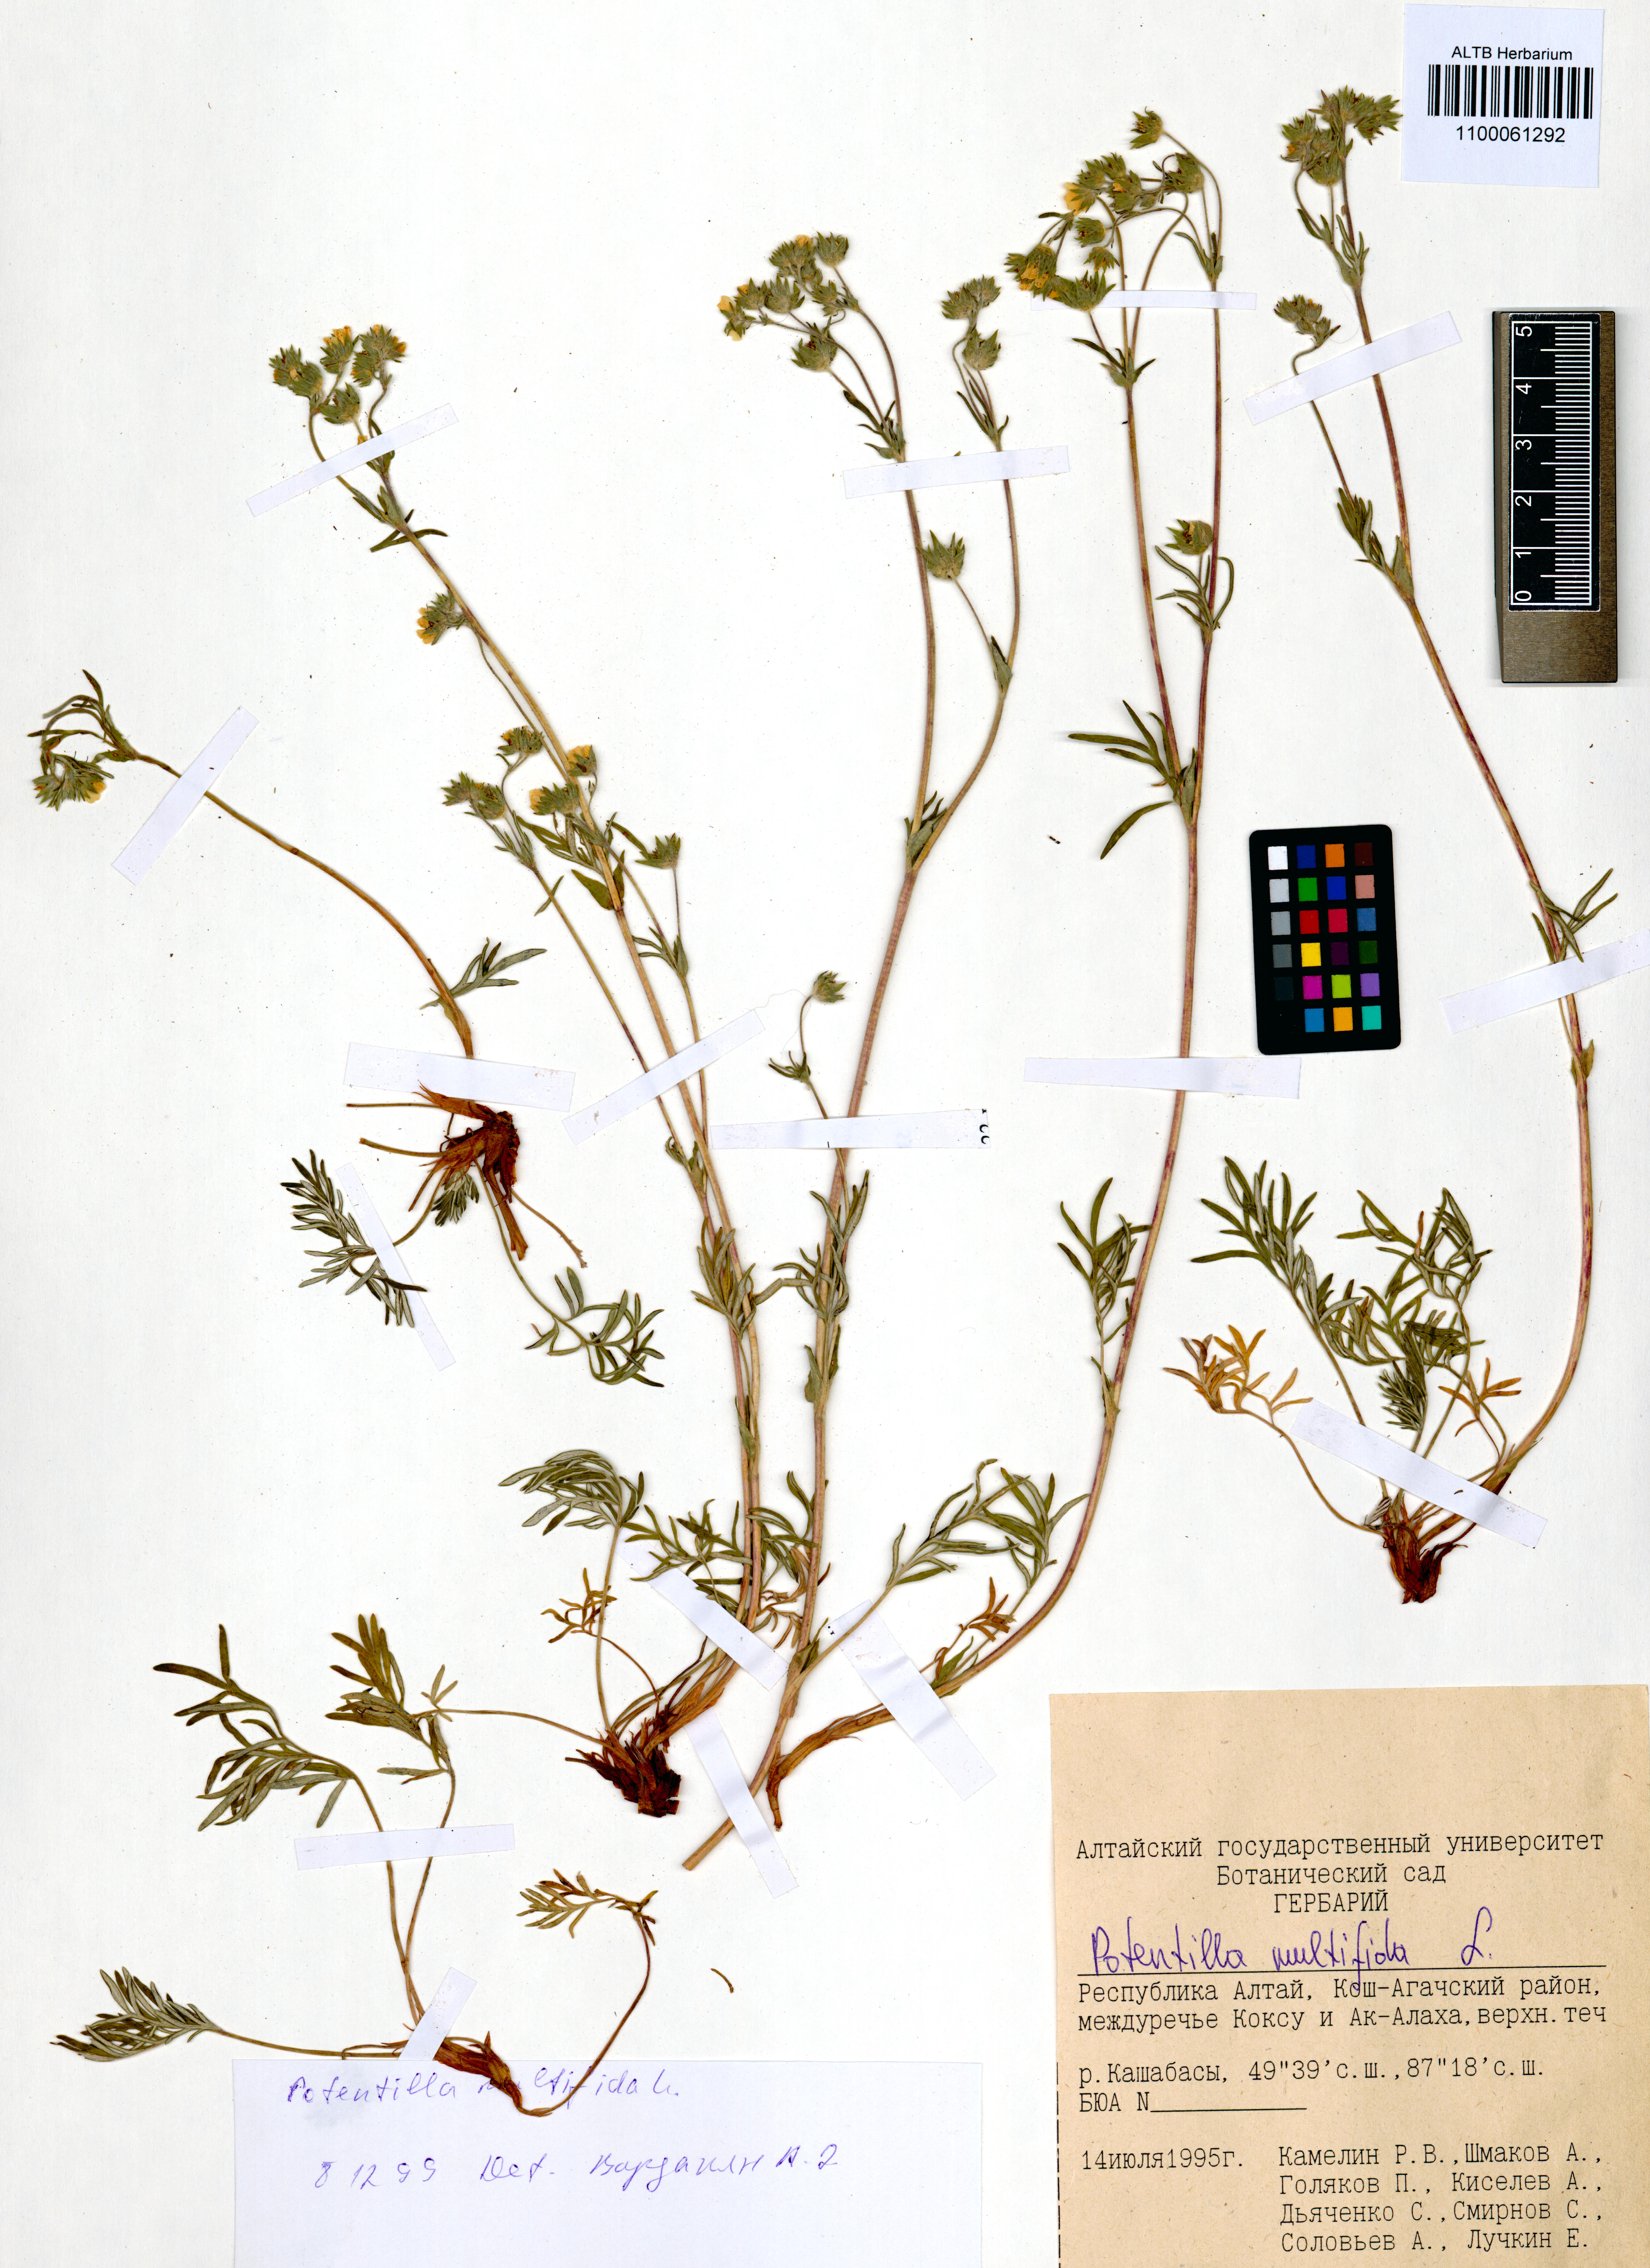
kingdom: Plantae
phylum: Tracheophyta
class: Magnoliopsida
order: Rosales
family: Rosaceae
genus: Potentilla
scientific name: Potentilla multifida
